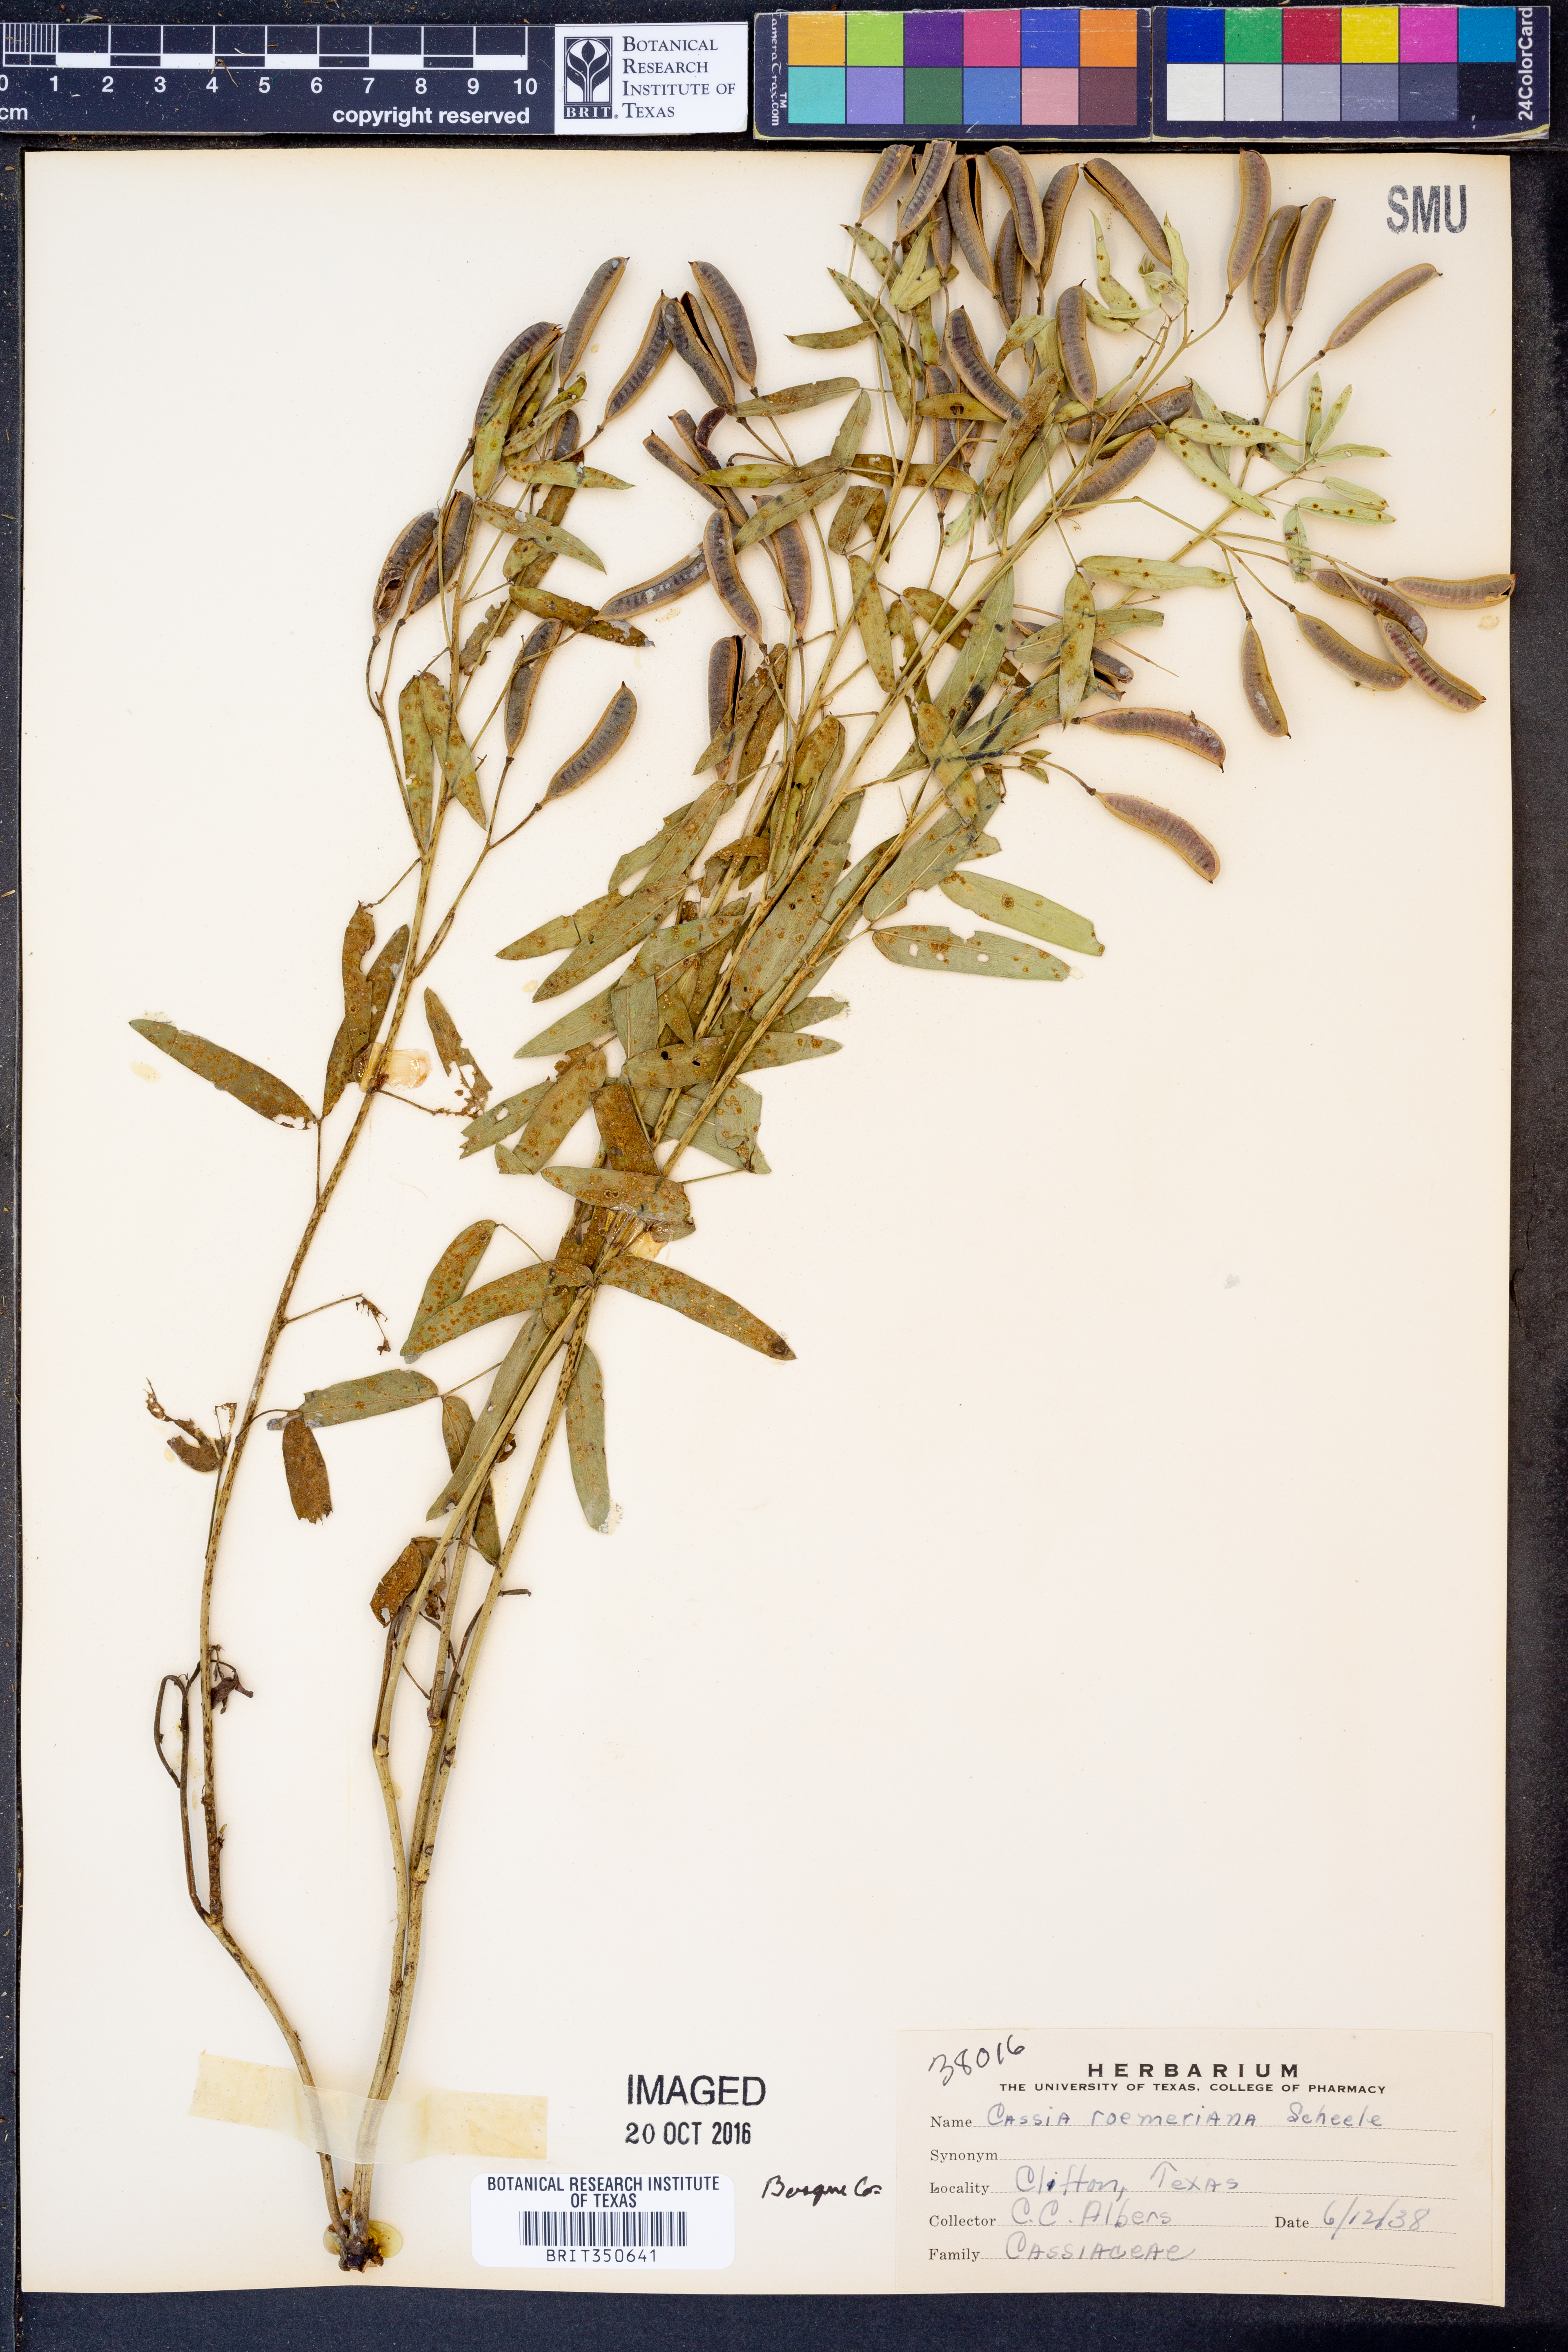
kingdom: Plantae
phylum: Tracheophyta
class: Magnoliopsida
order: Fabales
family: Fabaceae
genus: Senna
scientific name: Senna roemeriana
